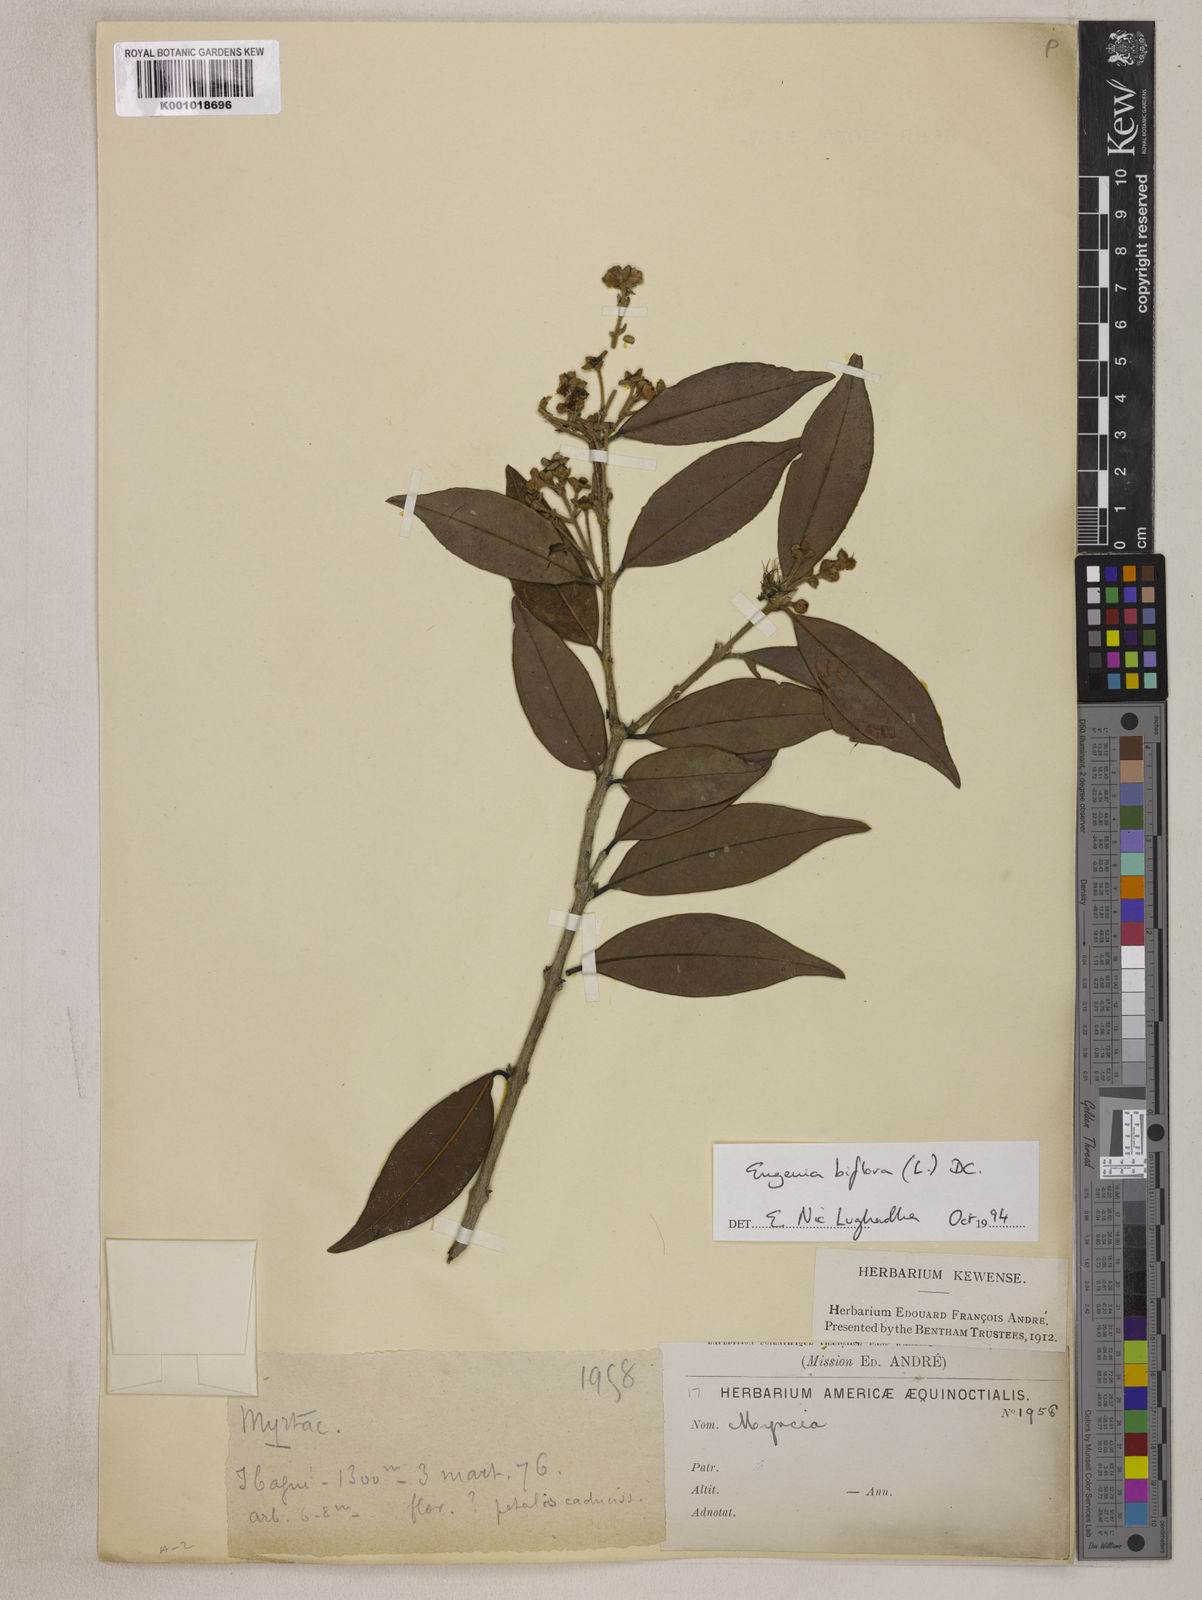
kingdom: Plantae
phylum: Tracheophyta
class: Magnoliopsida
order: Myrtales
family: Myrtaceae
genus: Eugenia
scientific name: Eugenia biflora
